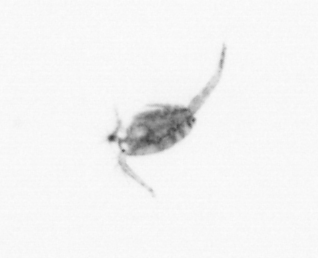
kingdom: Animalia
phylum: Arthropoda
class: Copepoda
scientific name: Copepoda
